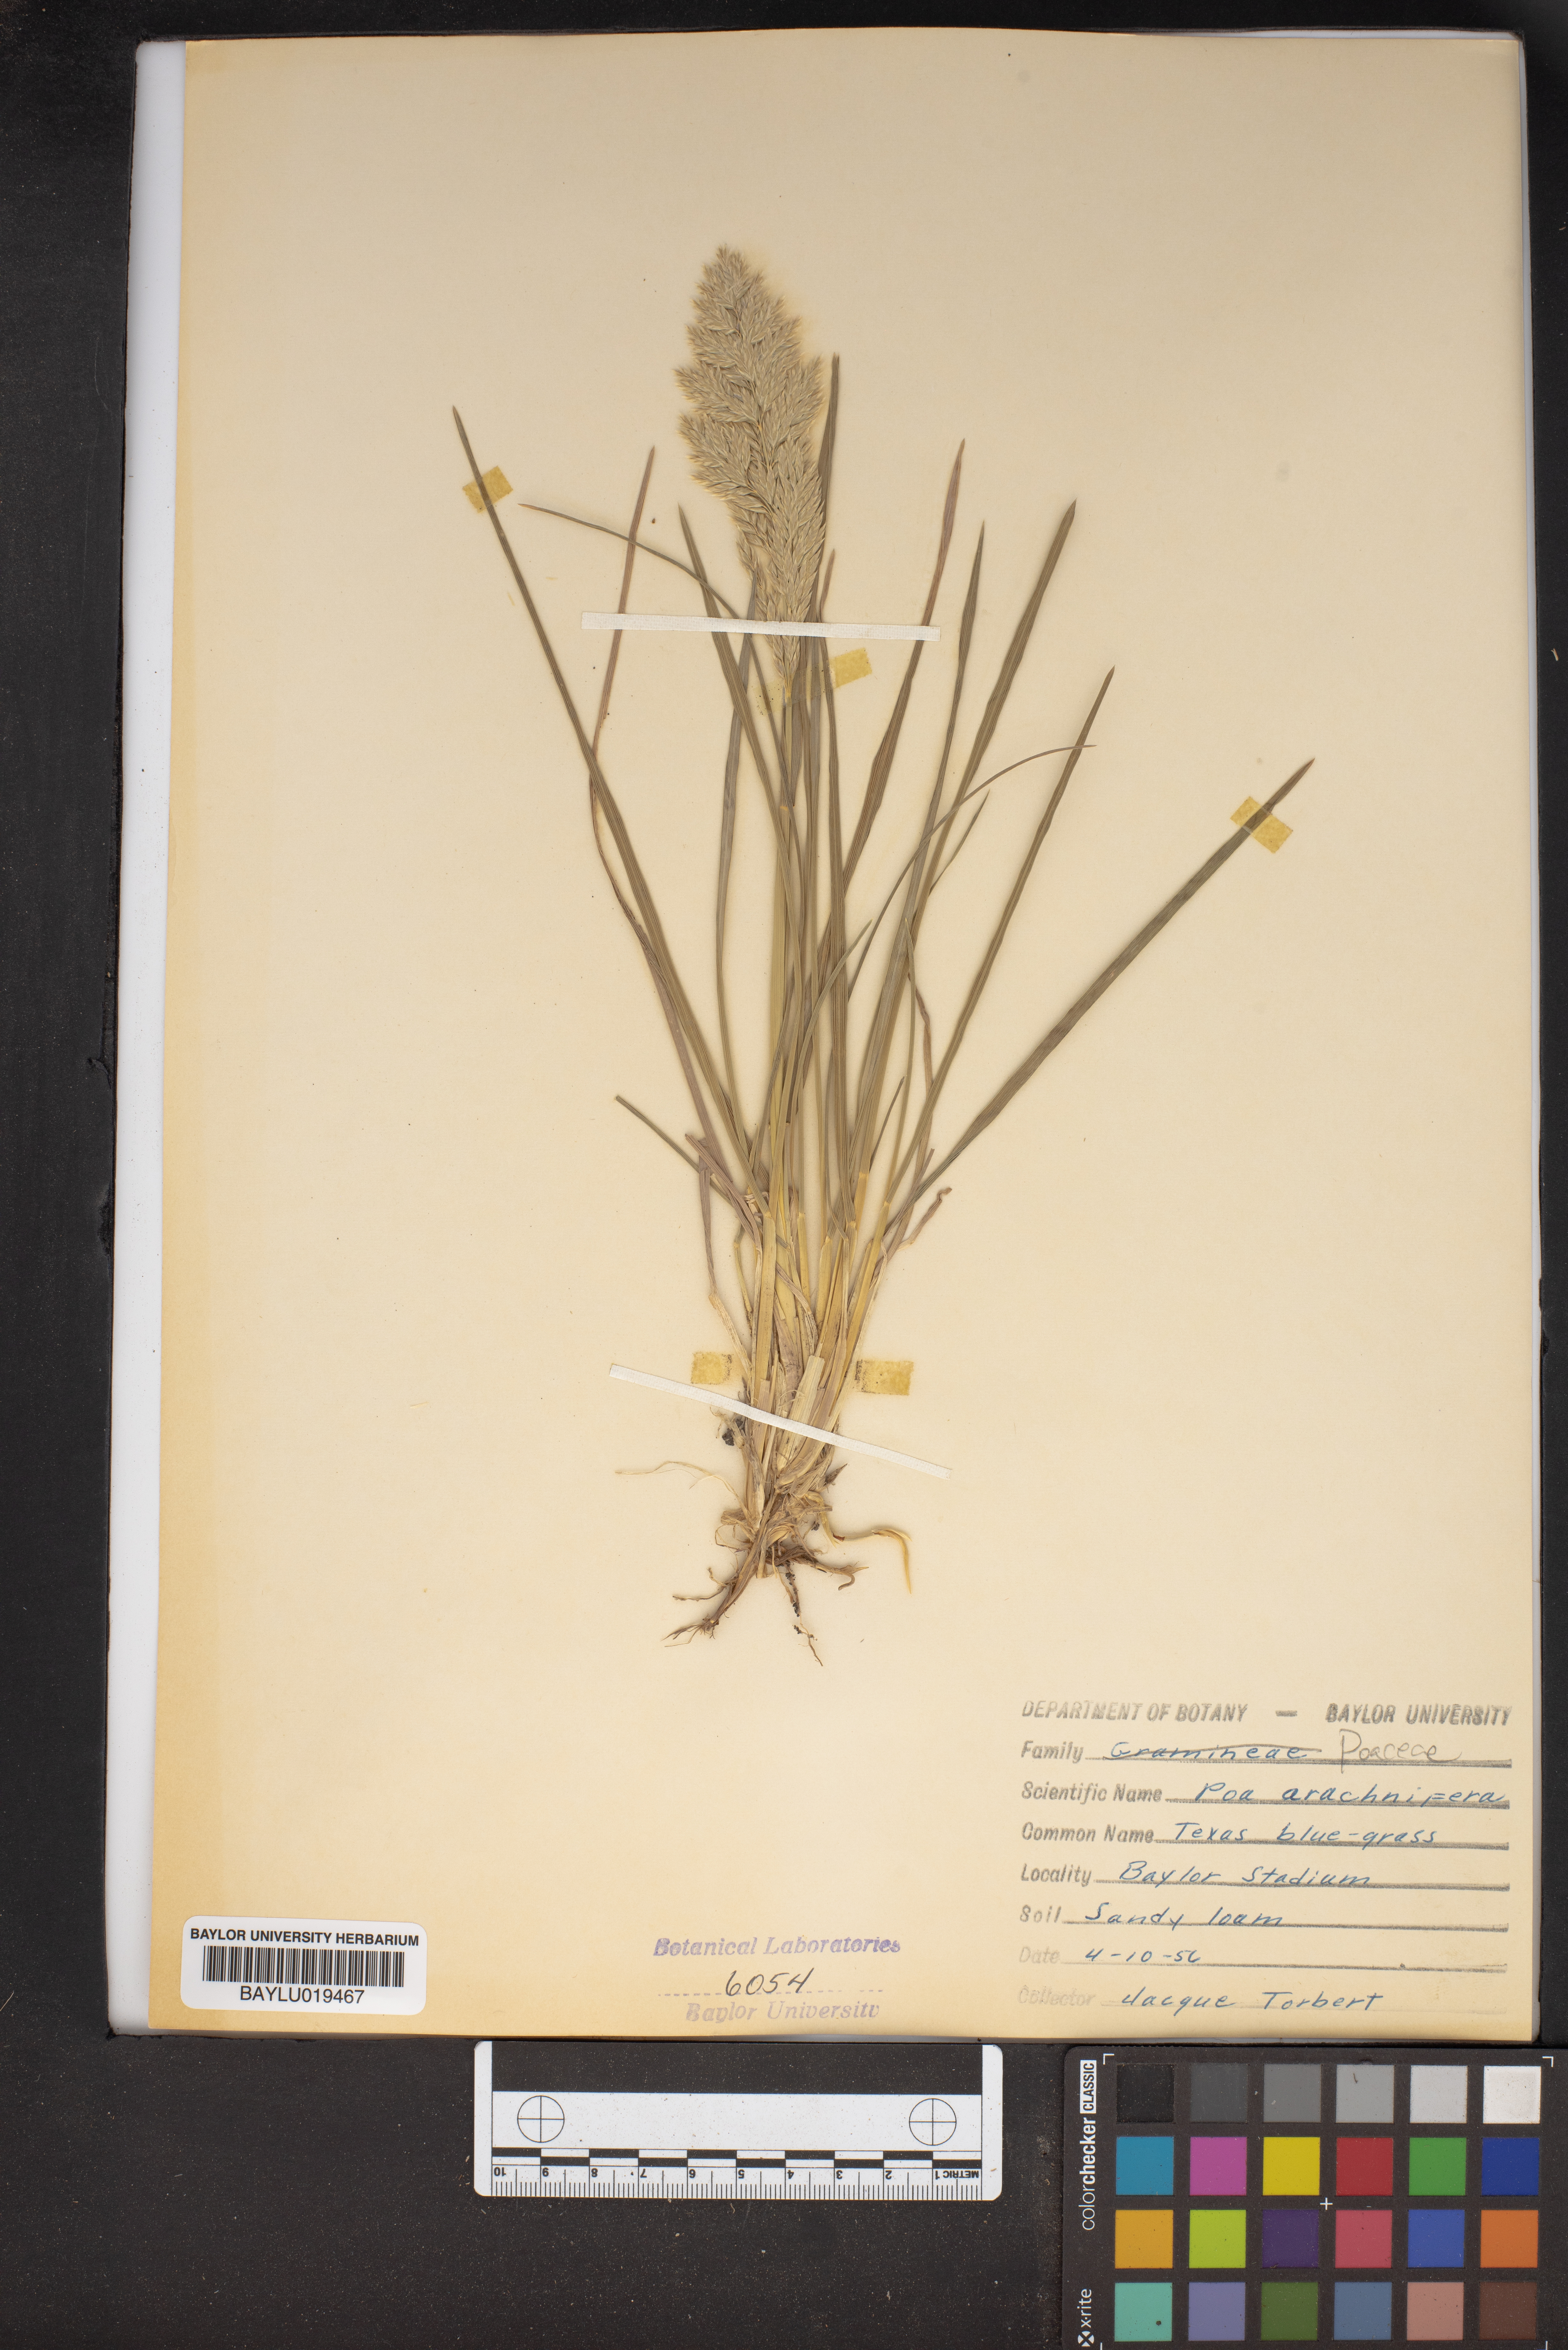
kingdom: Plantae
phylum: Tracheophyta
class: Liliopsida
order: Poales
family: Poaceae
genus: Poa
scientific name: Poa arachnifera
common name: Texas bluegrass
